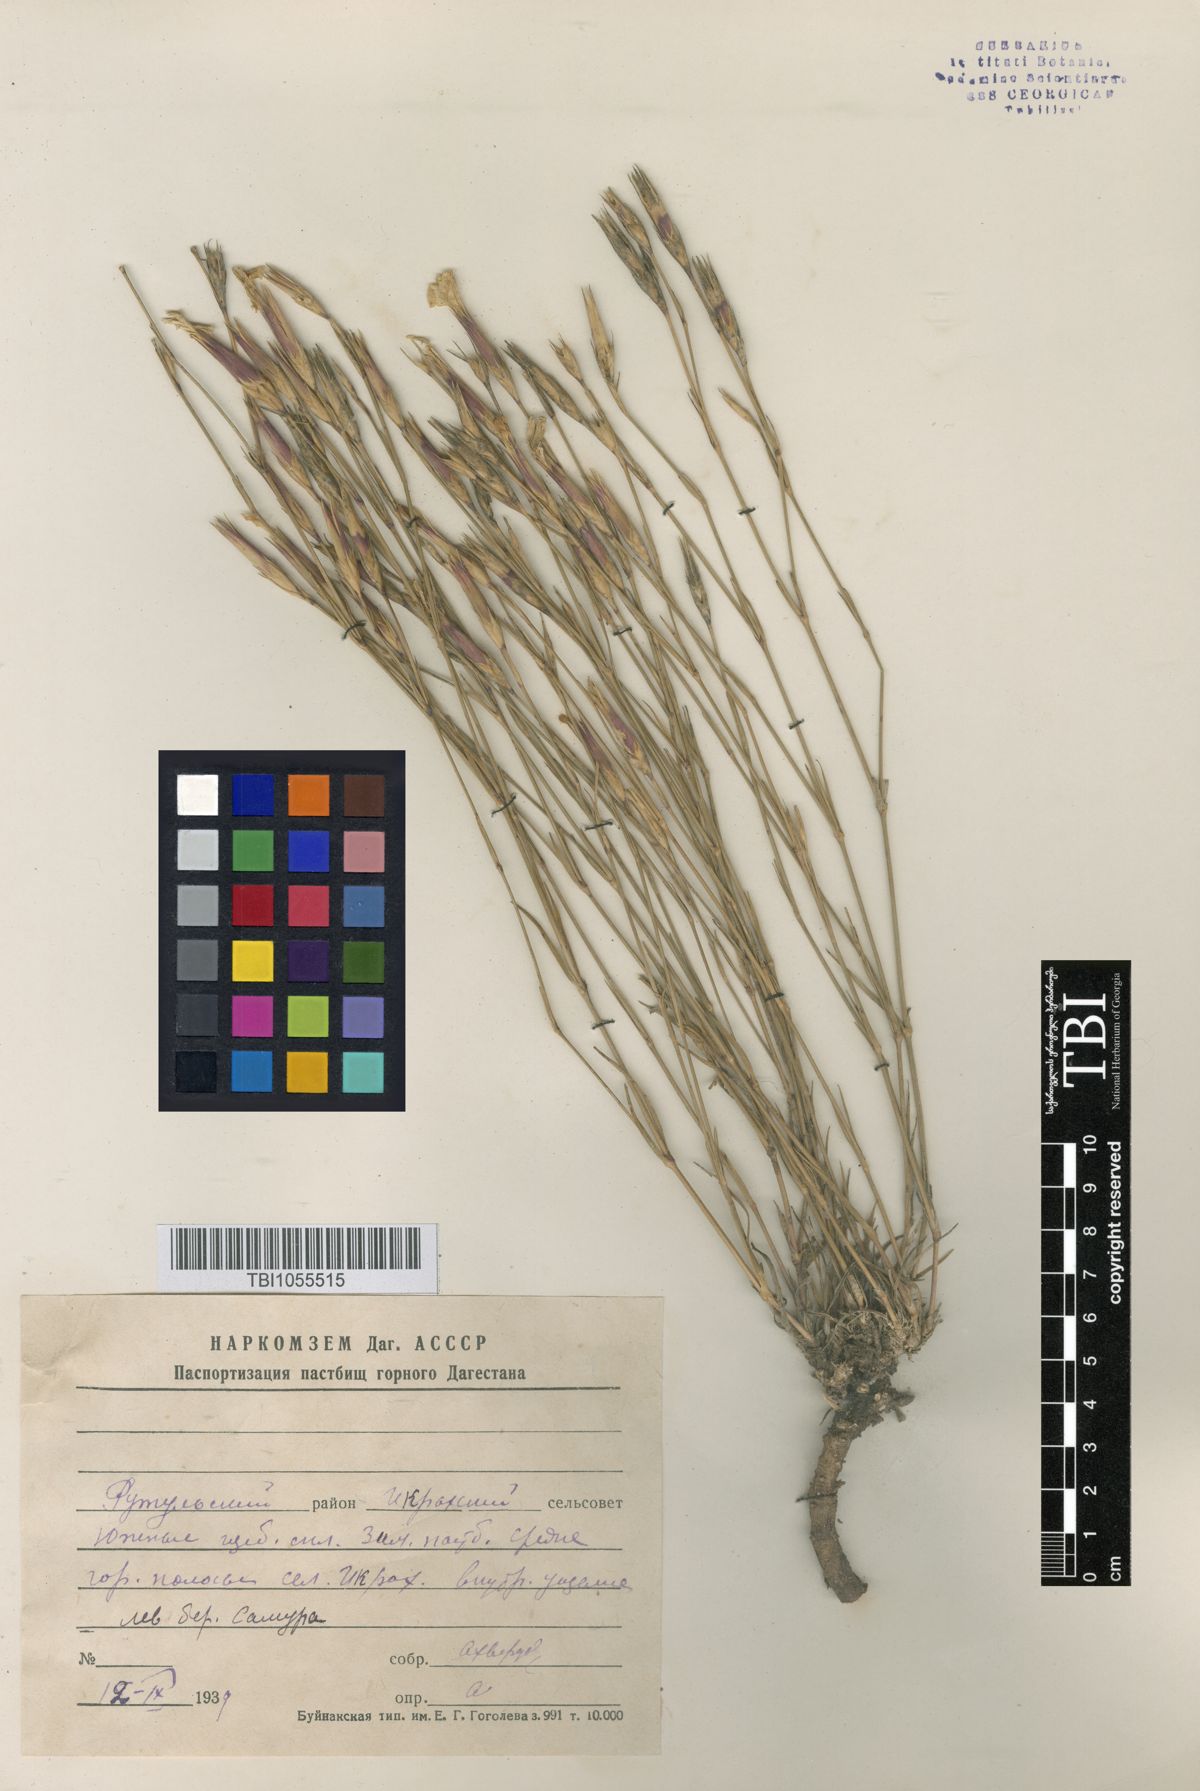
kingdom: Plantae
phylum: Tracheophyta
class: Magnoliopsida
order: Caryophyllales
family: Caryophyllaceae
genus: Dianthus
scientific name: Dianthus daghestanicus
